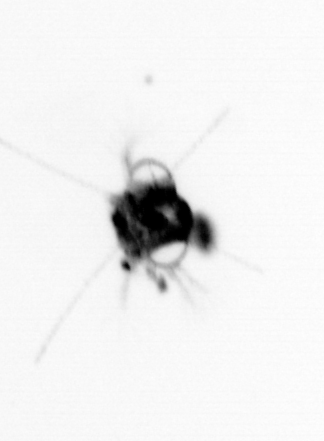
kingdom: Animalia
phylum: Arthropoda
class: Malacostraca
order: Decapoda
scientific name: Decapoda
